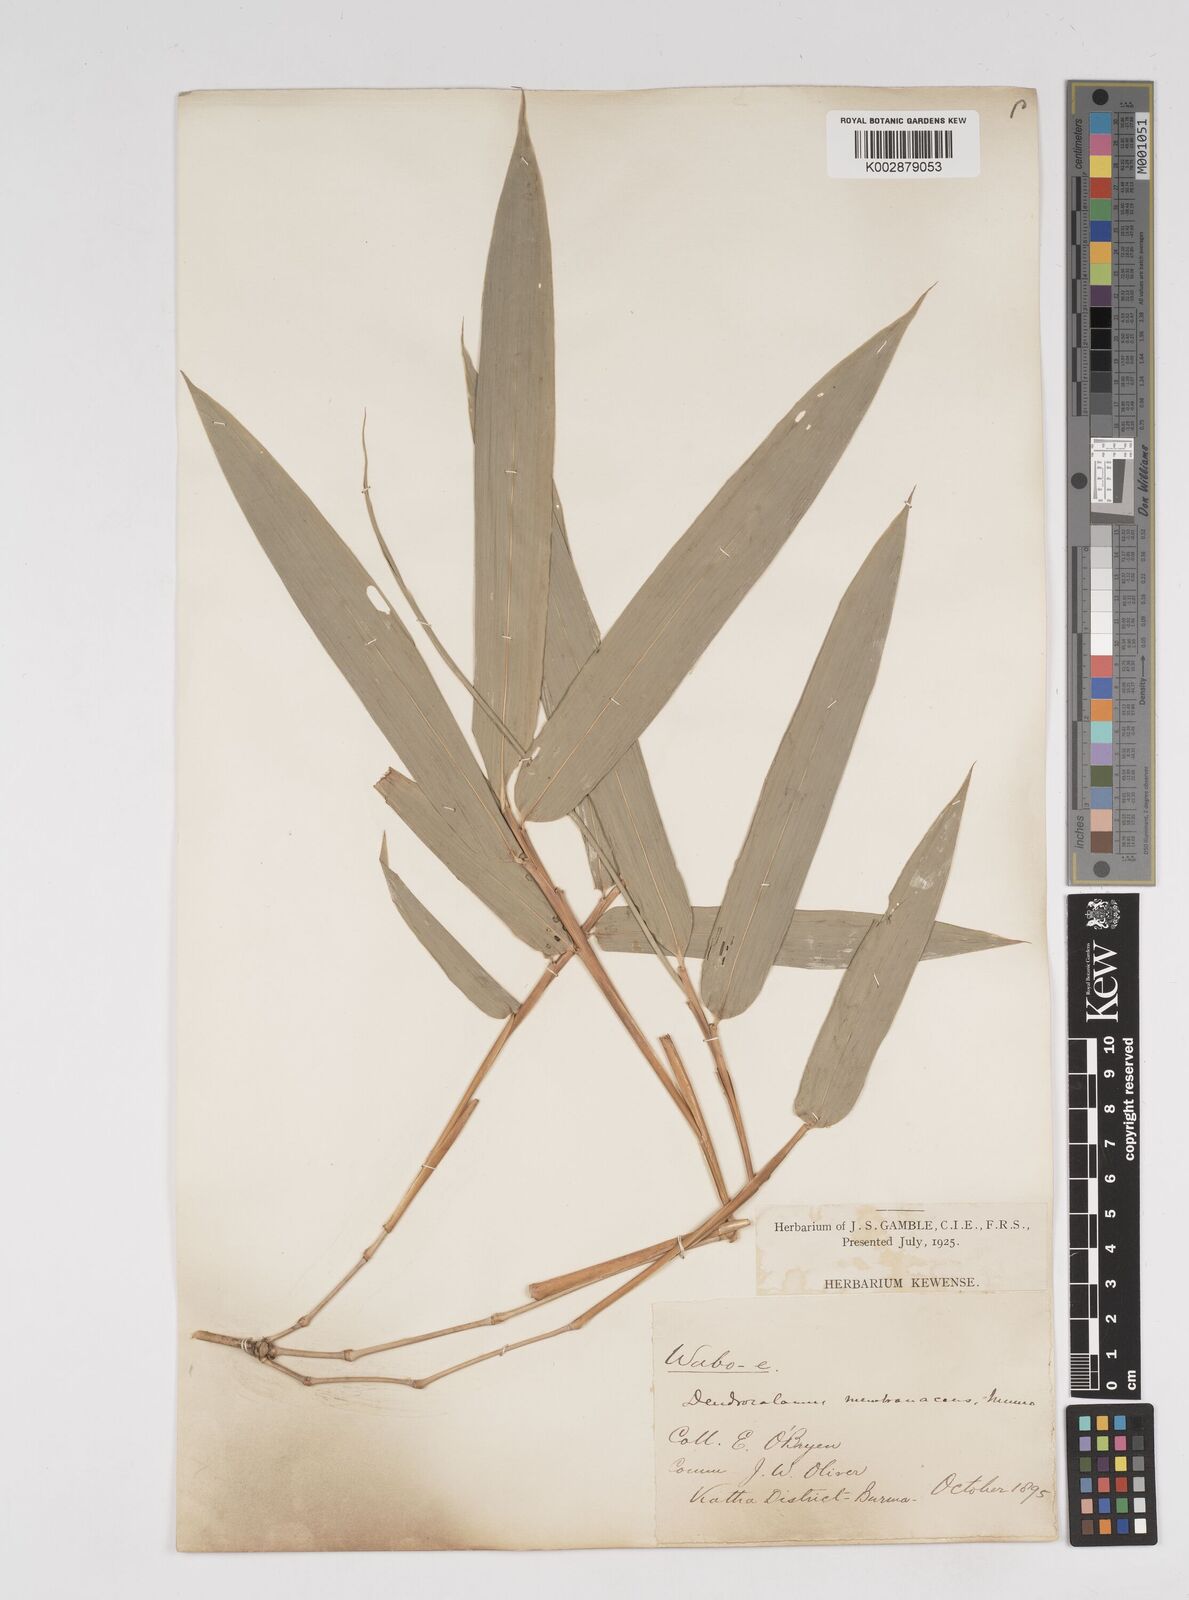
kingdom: Plantae
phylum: Tracheophyta
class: Liliopsida
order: Poales
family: Poaceae
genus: Dendrocalamus
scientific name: Dendrocalamus membranaceus
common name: White bamboo
